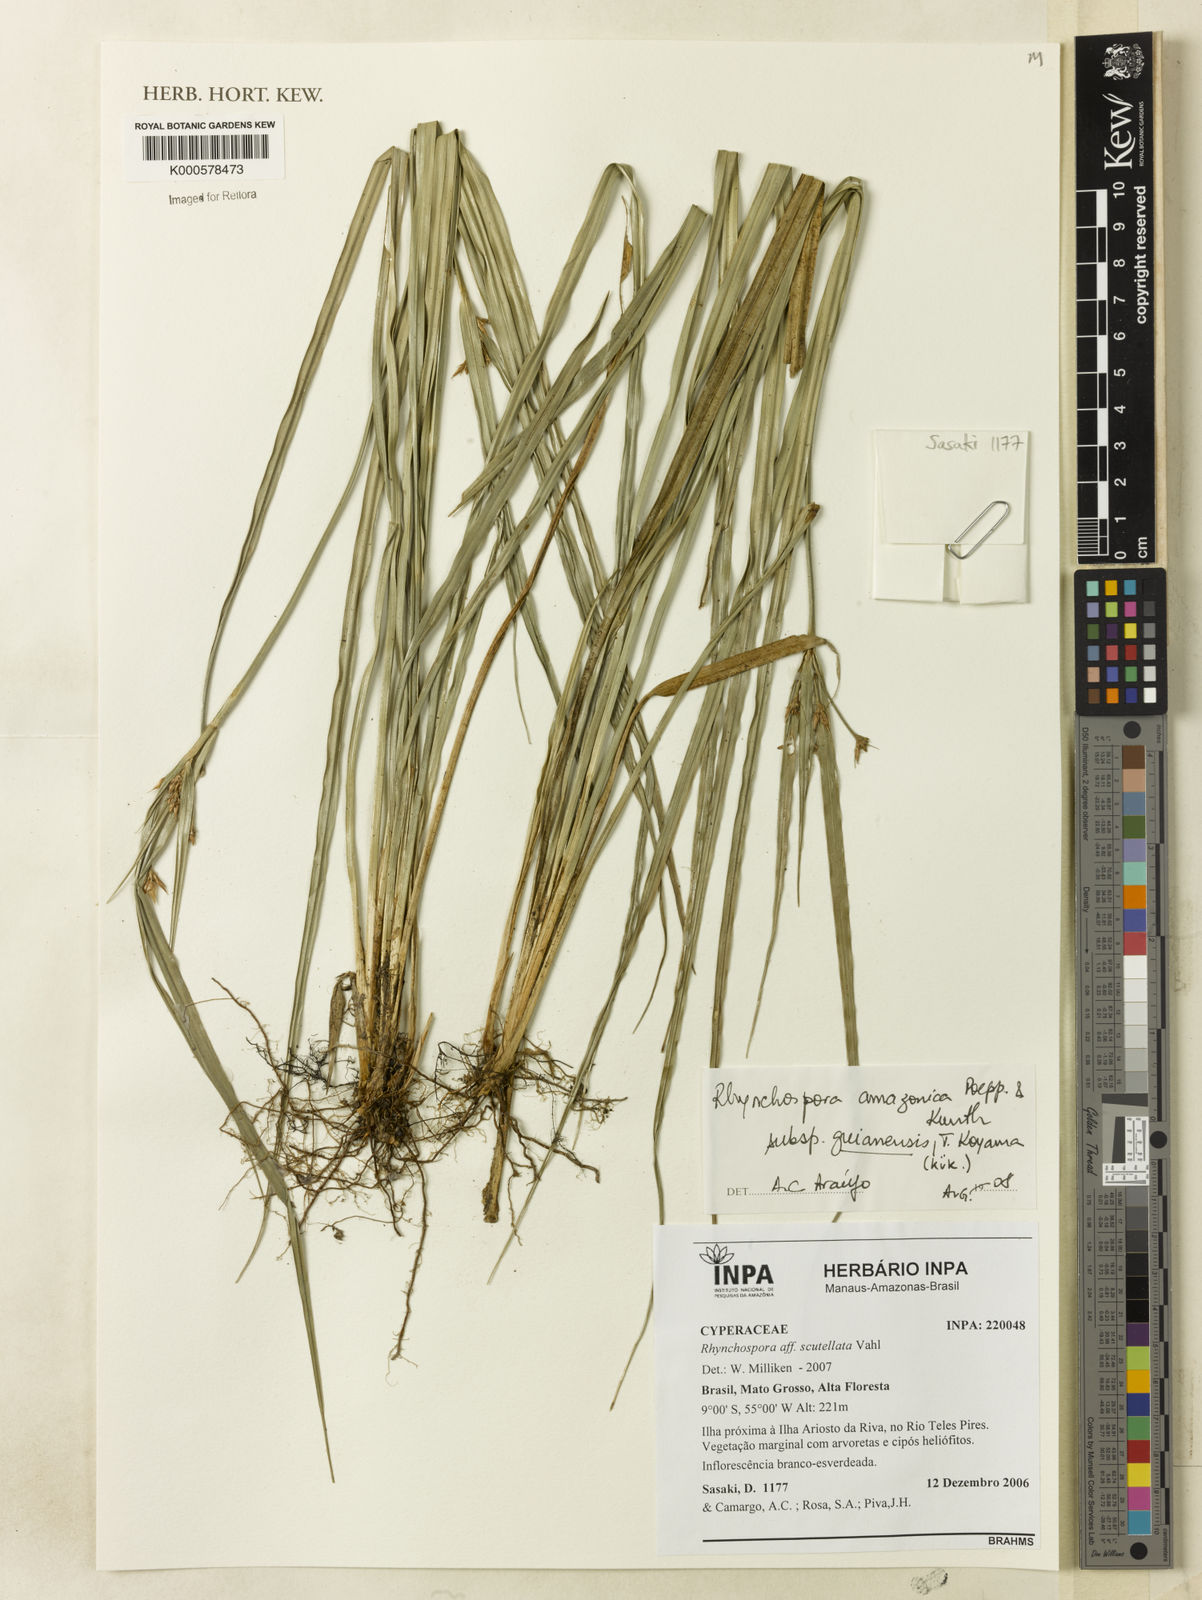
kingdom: Plantae
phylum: Tracheophyta
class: Liliopsida
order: Poales
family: Cyperaceae
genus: Rhynchospora
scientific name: Rhynchospora cephalotes
